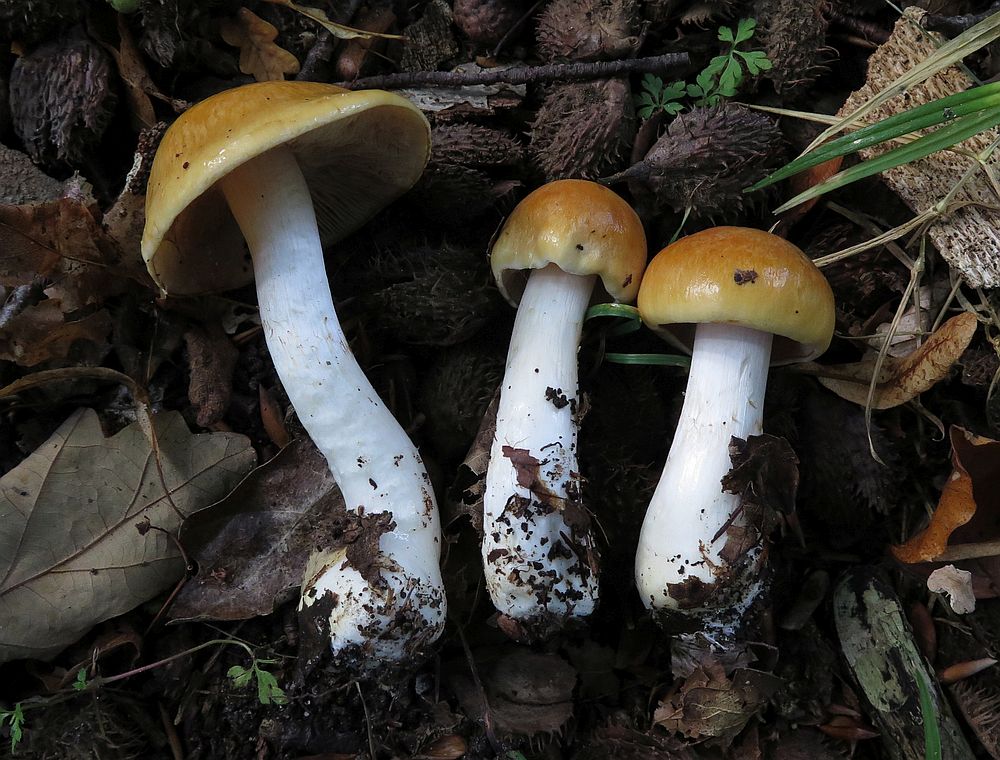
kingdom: Fungi
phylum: Basidiomycota
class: Agaricomycetes
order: Agaricales
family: Cortinariaceae
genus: Cortinarius
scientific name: Cortinarius
